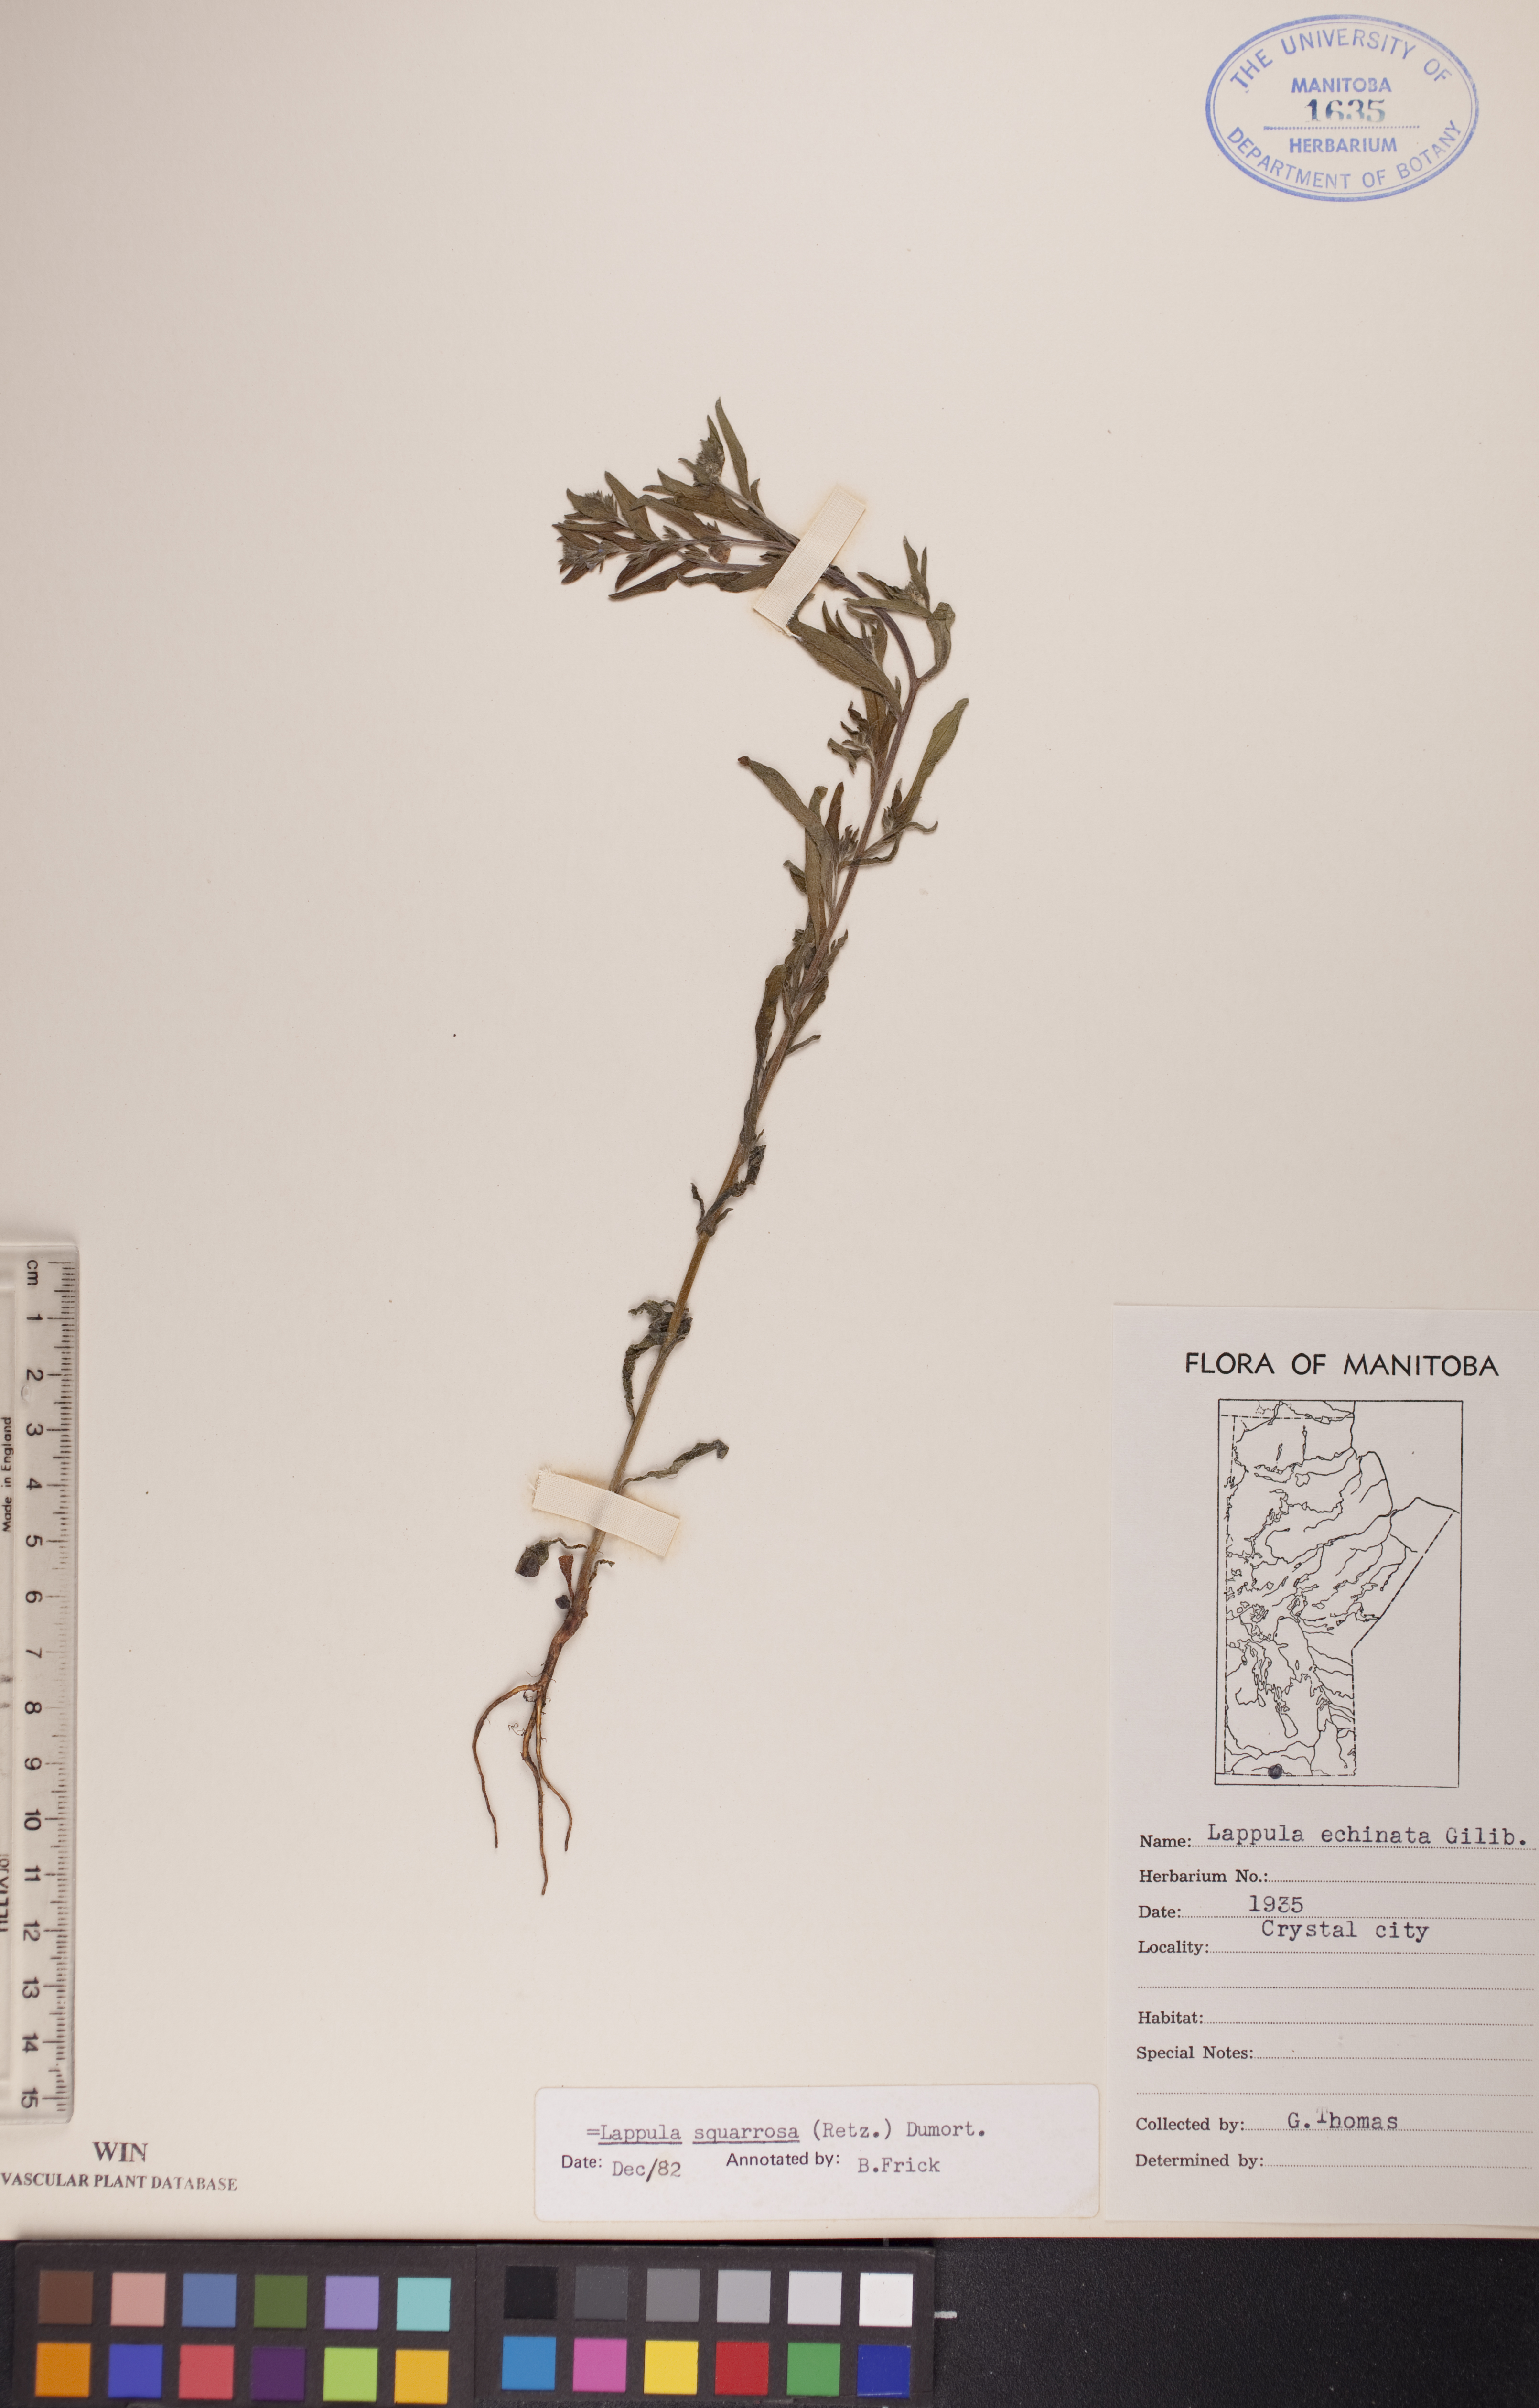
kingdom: Plantae
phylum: Tracheophyta
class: Magnoliopsida
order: Boraginales
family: Boraginaceae
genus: Lappula
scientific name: Lappula squarrosa
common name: European stickseed
